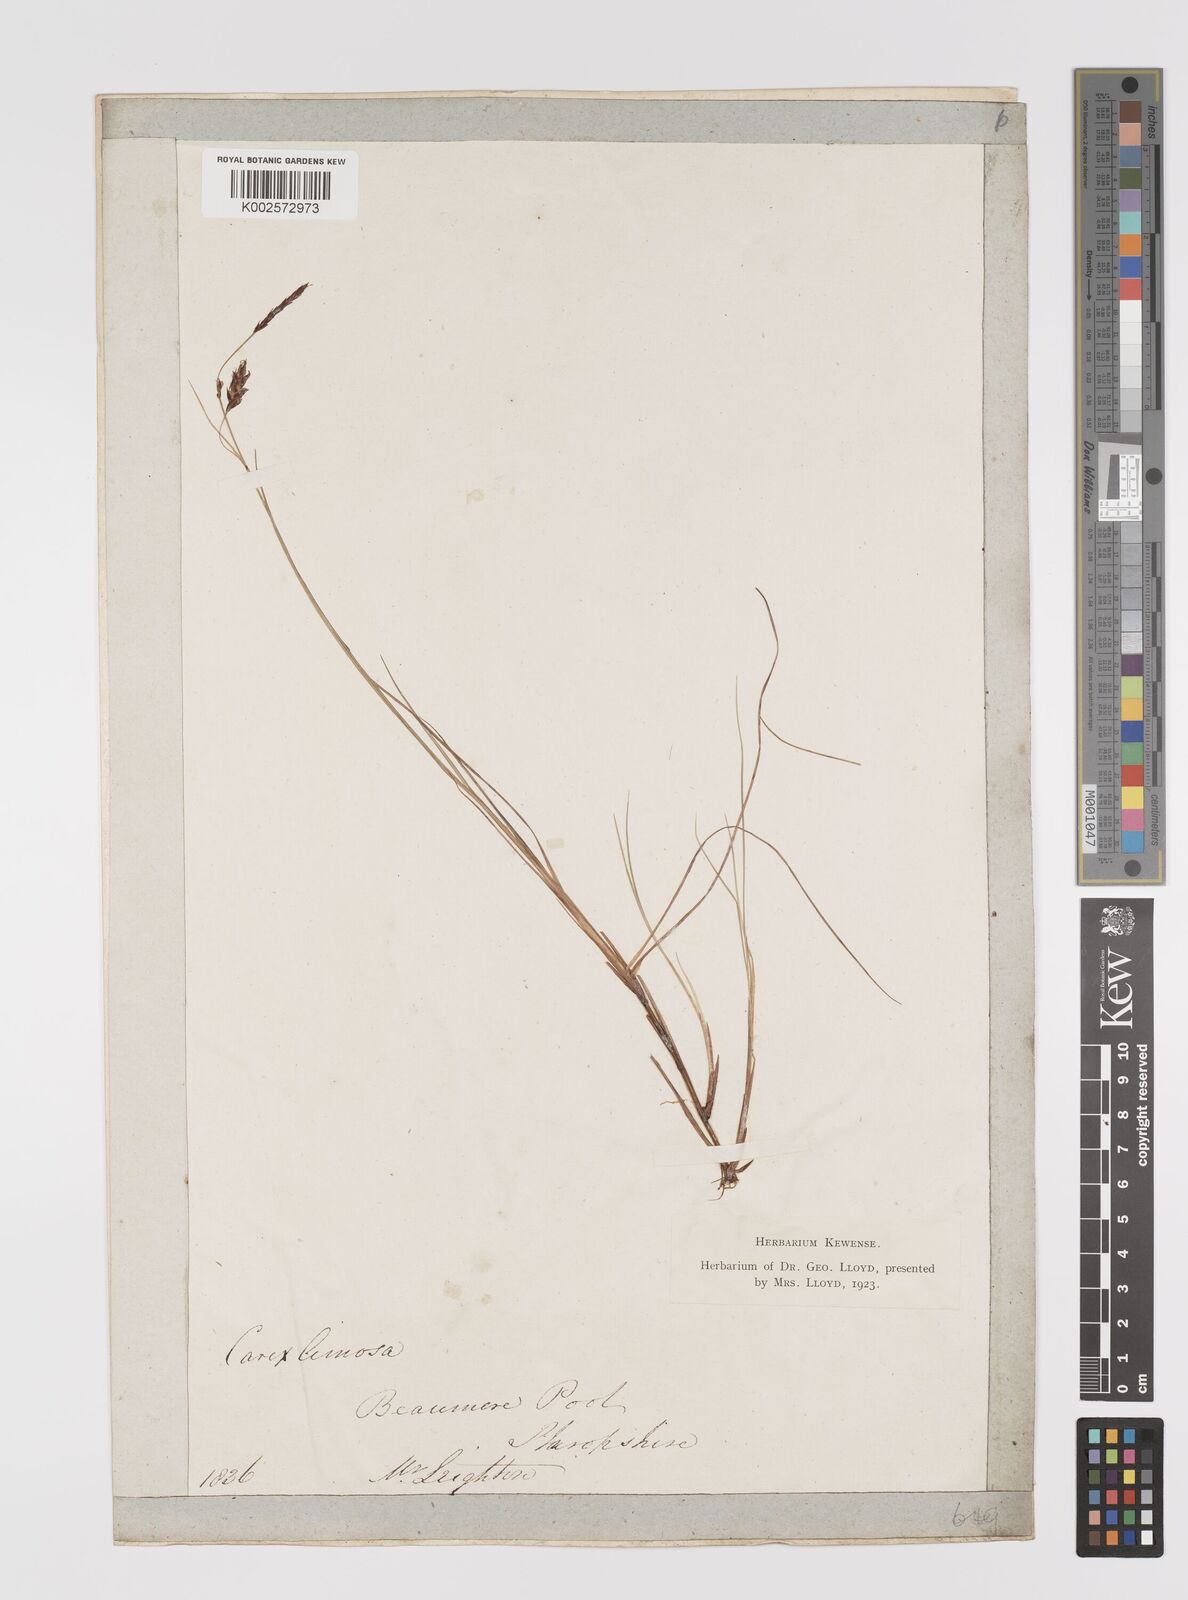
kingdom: Plantae
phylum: Tracheophyta
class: Liliopsida
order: Poales
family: Cyperaceae
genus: Carex
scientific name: Carex limosa
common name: Bog sedge
